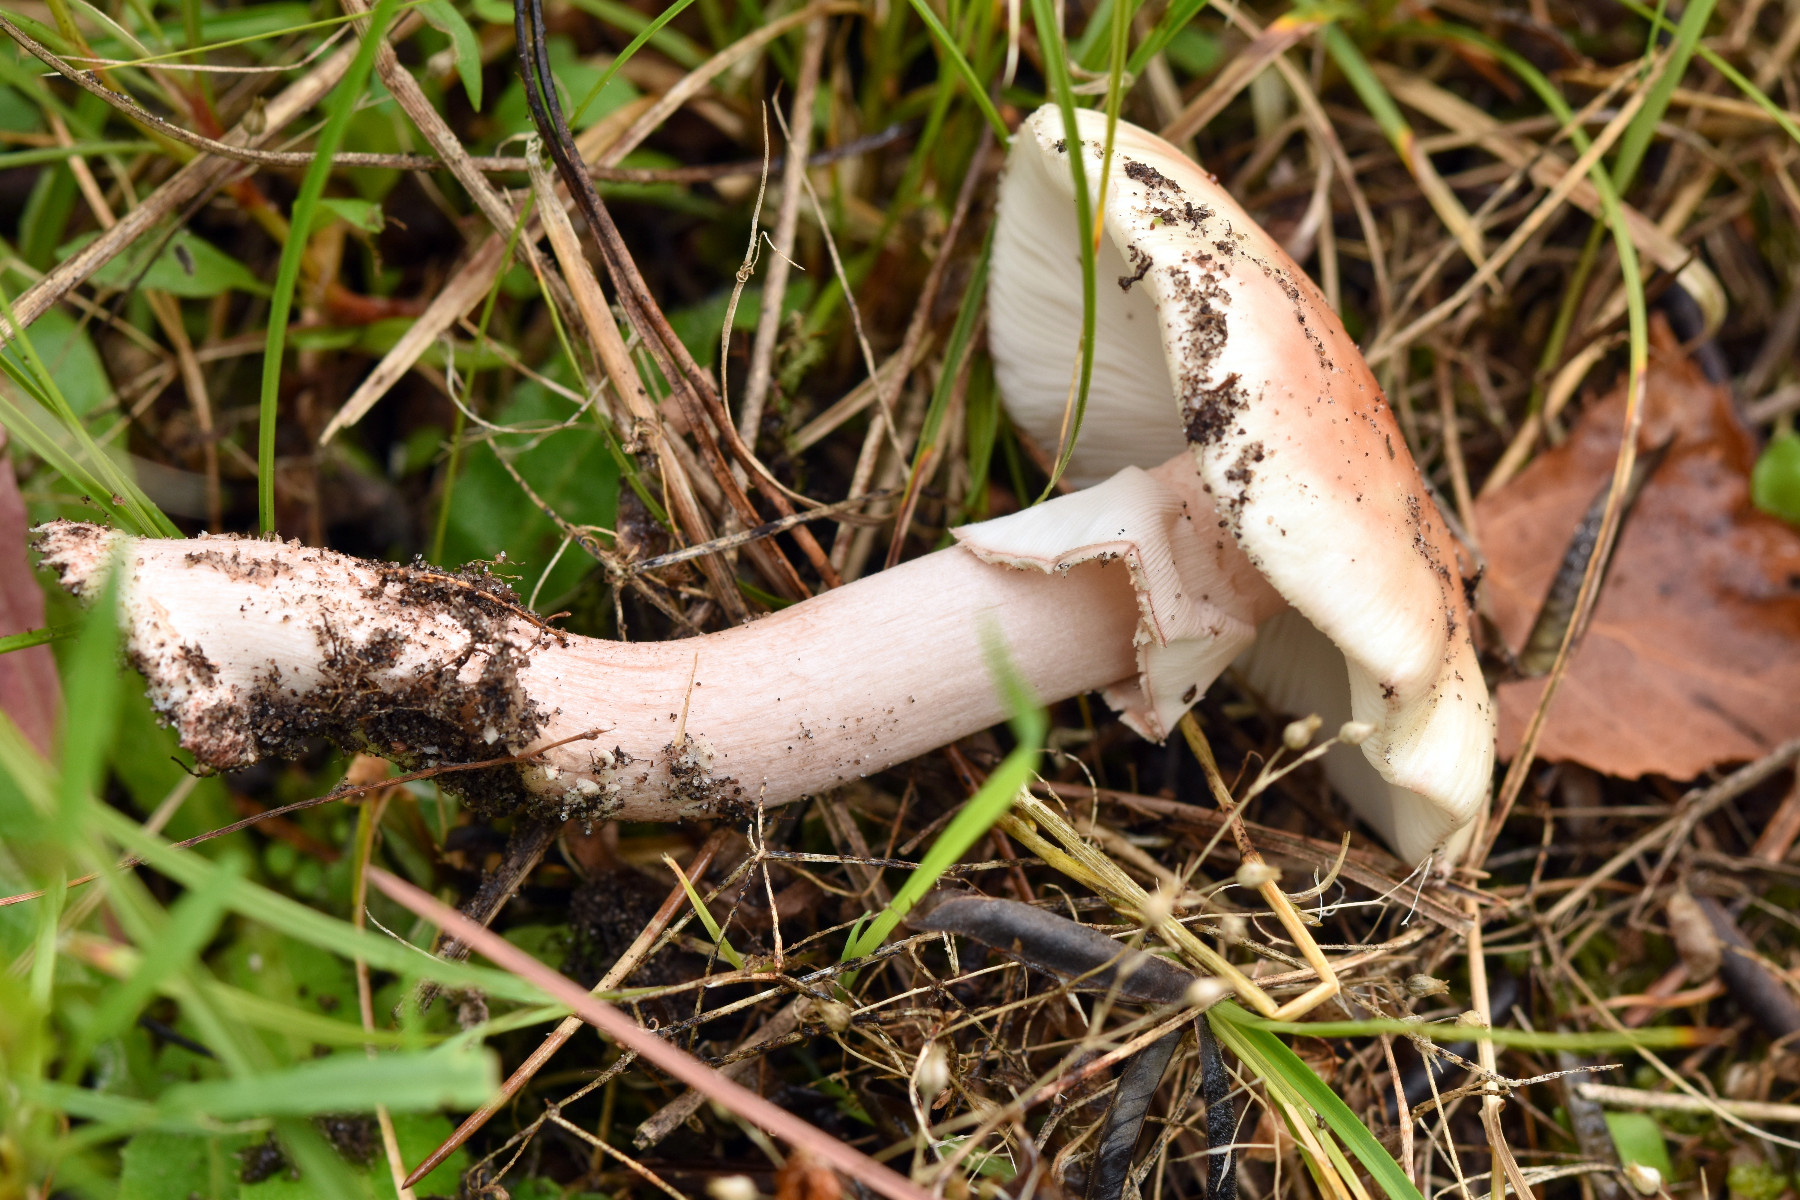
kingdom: Fungi
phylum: Basidiomycota
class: Agaricomycetes
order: Agaricales
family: Amanitaceae
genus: Amanita
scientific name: Amanita rubescens
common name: rødmende fluesvamp
